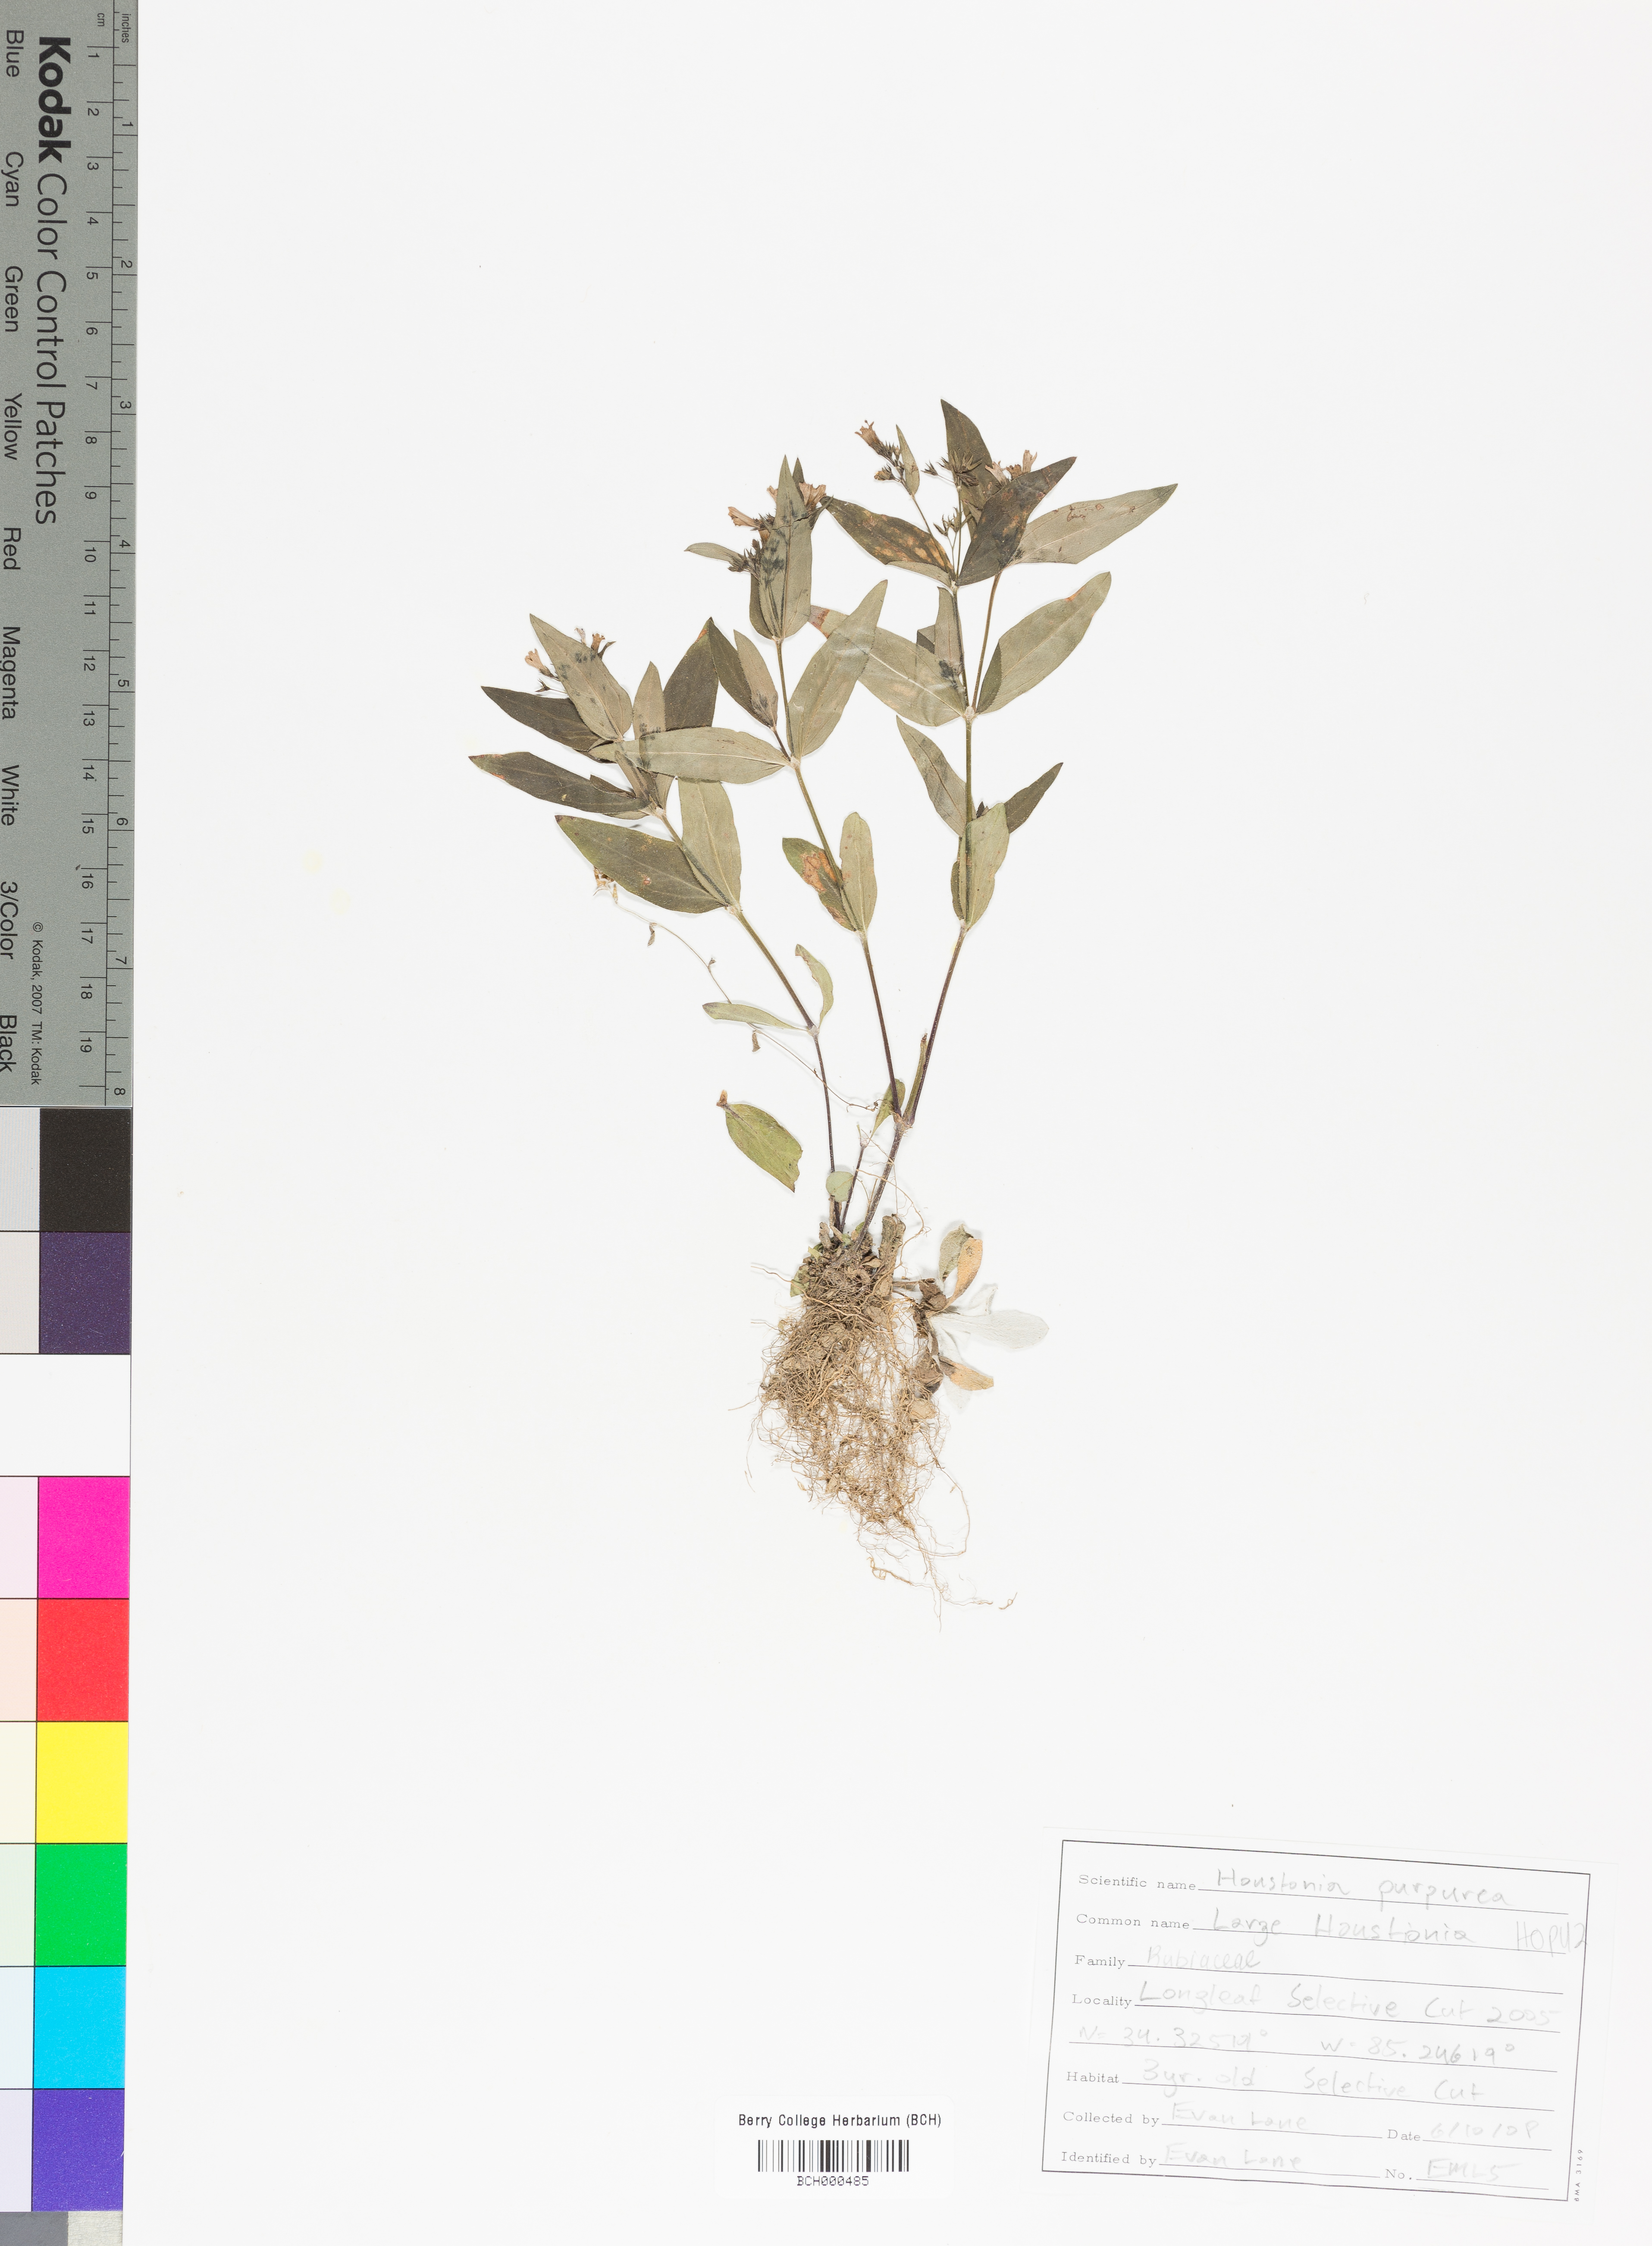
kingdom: Plantae
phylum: Tracheophyta
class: Magnoliopsida
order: Gentianales
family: Rubiaceae
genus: Houstonia
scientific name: Houstonia purpurea
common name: Summer bluet
